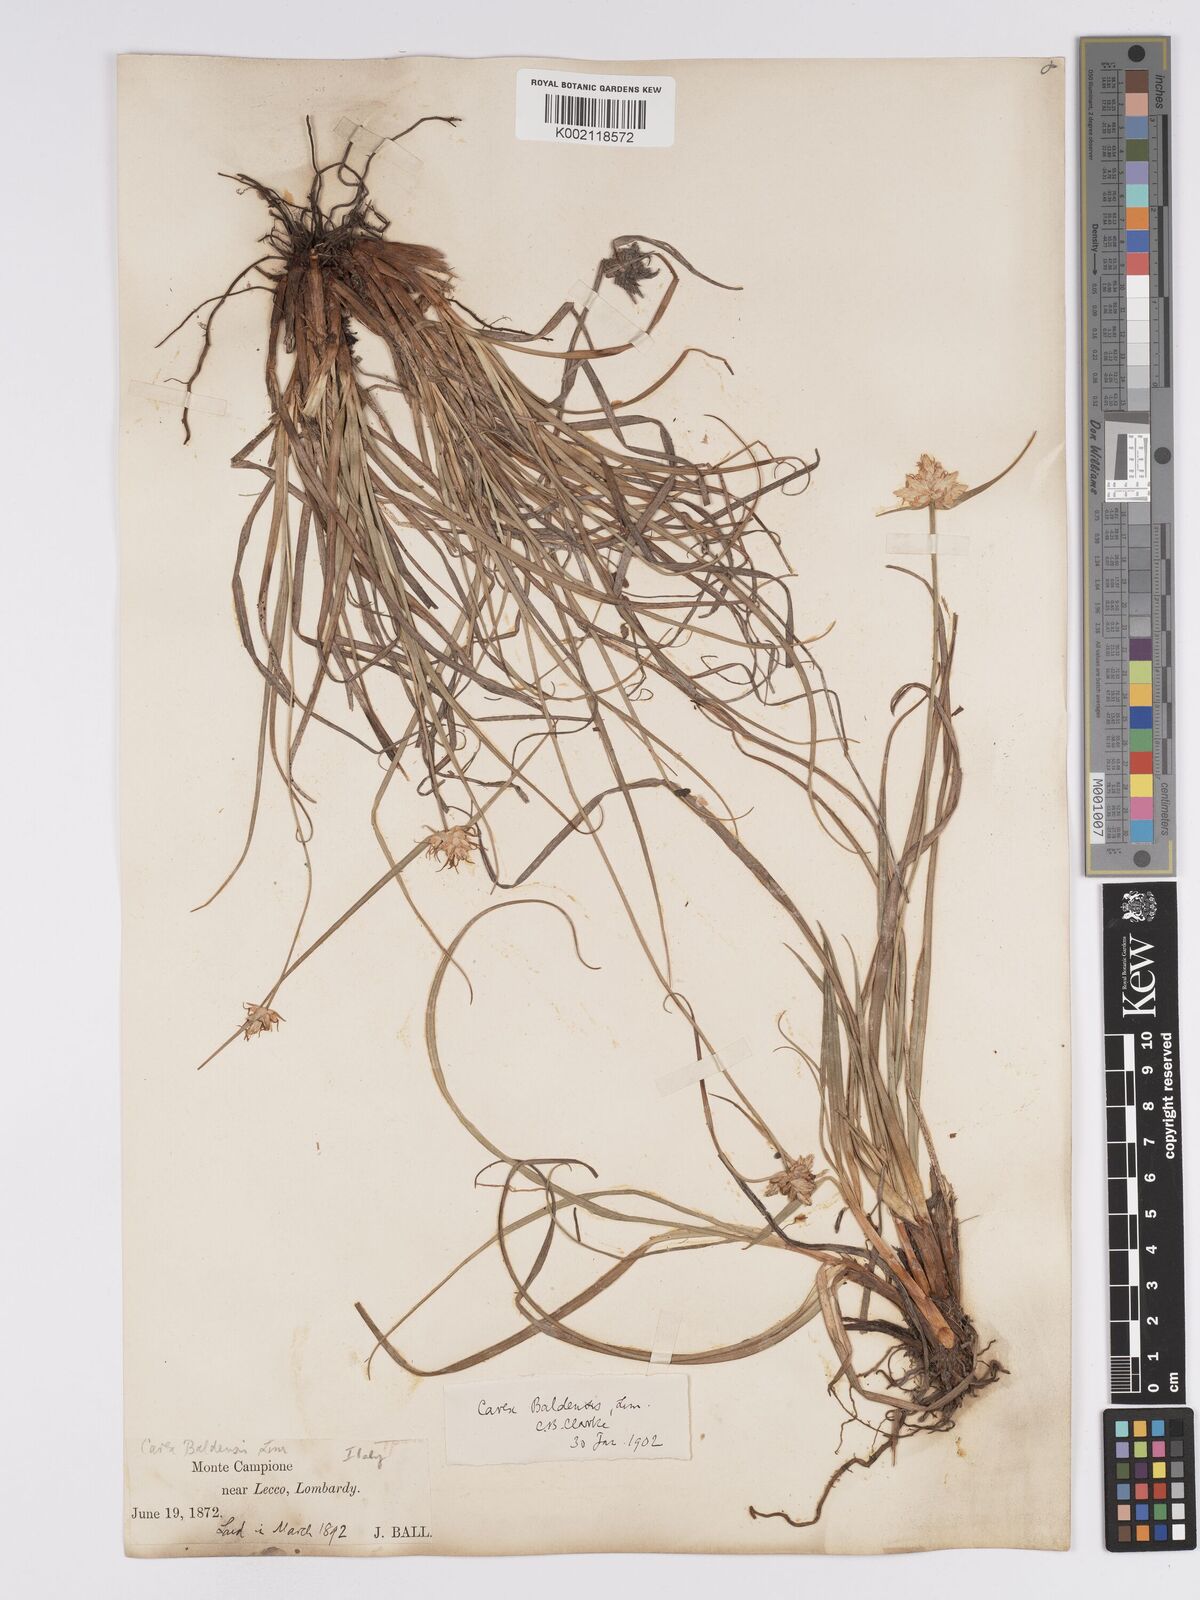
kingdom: Plantae
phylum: Tracheophyta
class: Liliopsida
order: Poales
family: Cyperaceae
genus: Carex
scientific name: Carex baldensis
